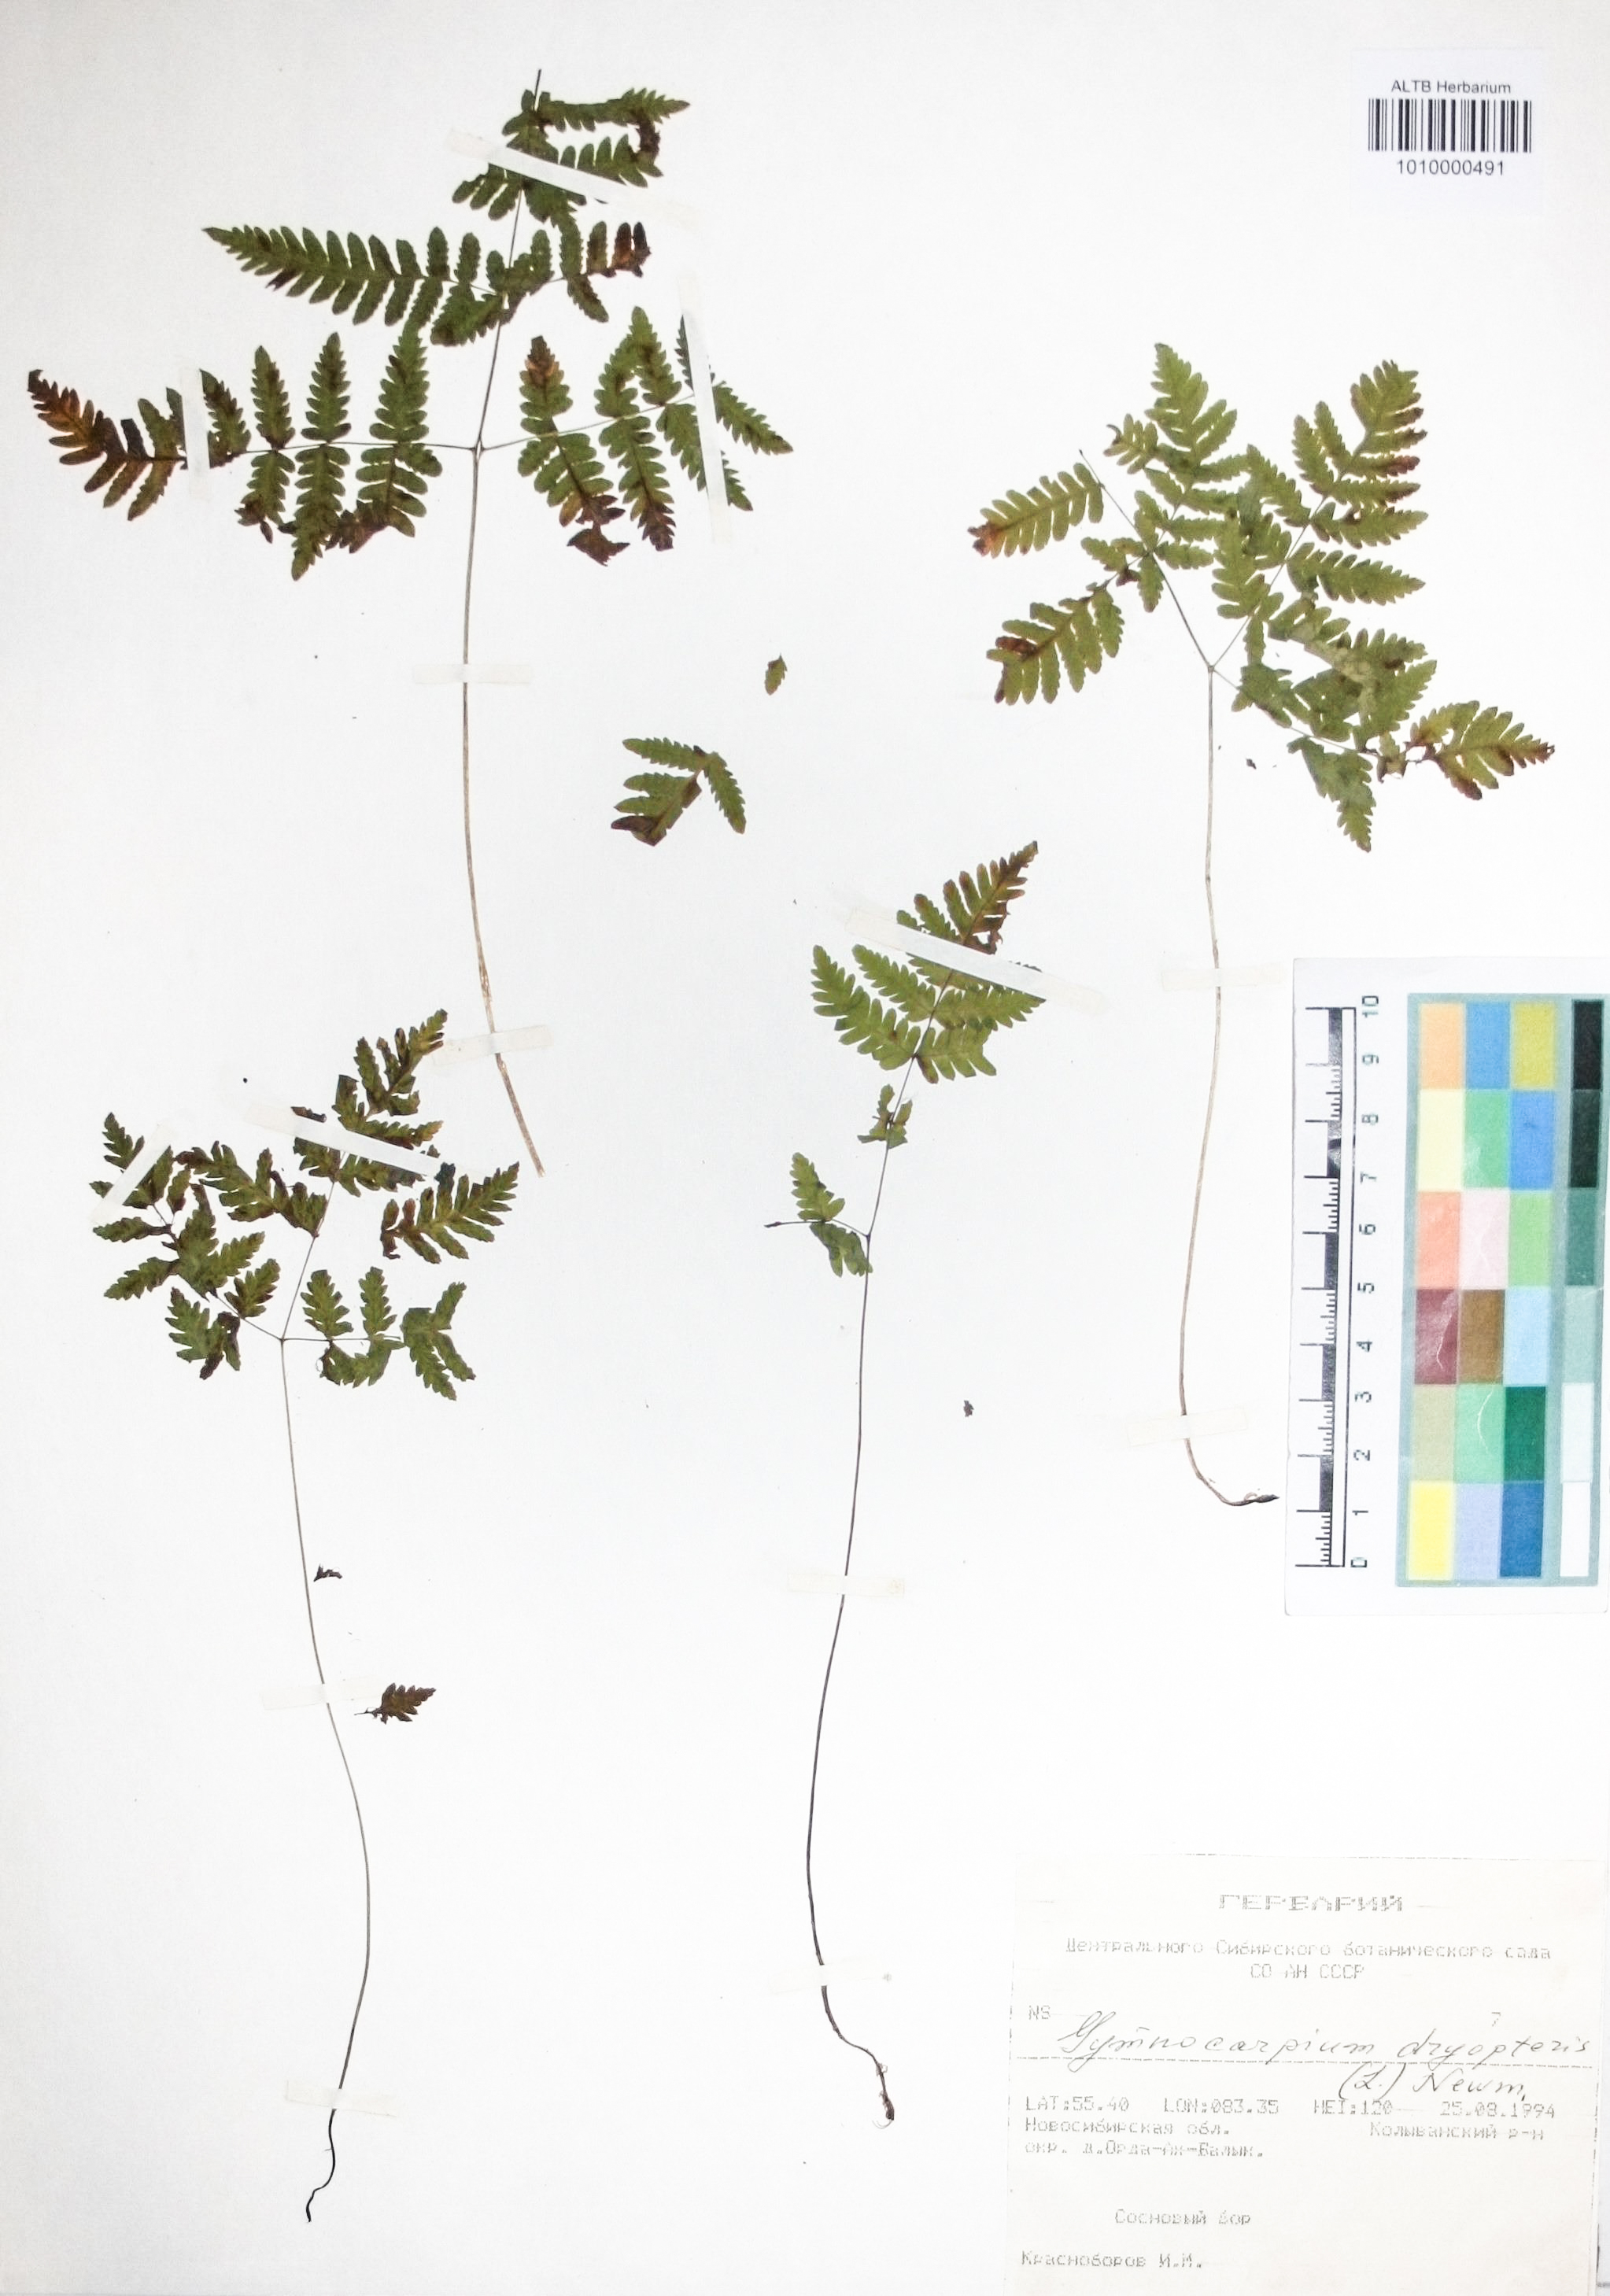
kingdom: Plantae
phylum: Tracheophyta
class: Polypodiopsida
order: Polypodiales
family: Cystopteridaceae
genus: Gymnocarpium
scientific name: Gymnocarpium dryopteris
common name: Oak fern
